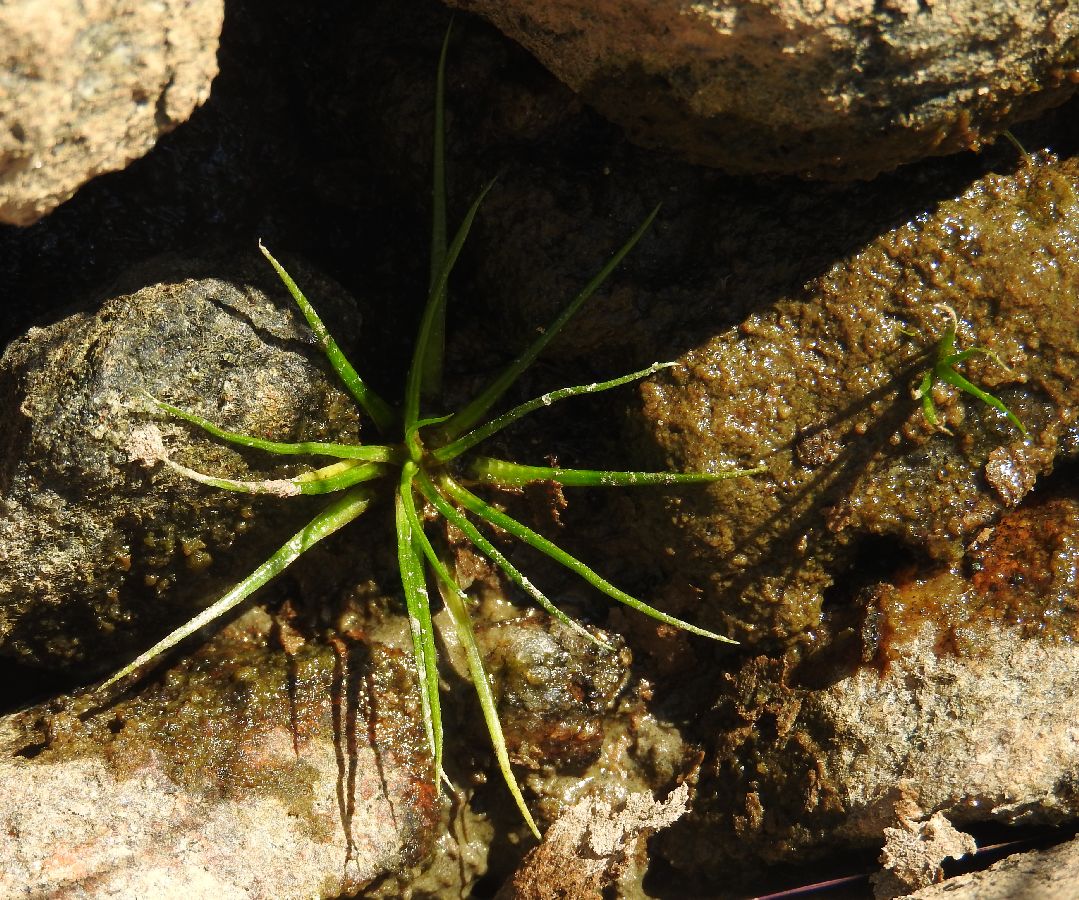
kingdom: Plantae
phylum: Tracheophyta
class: Lycopodiopsida
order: Isoetales
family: Isoetaceae
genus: Isoetes
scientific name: Isoetes lacustris
